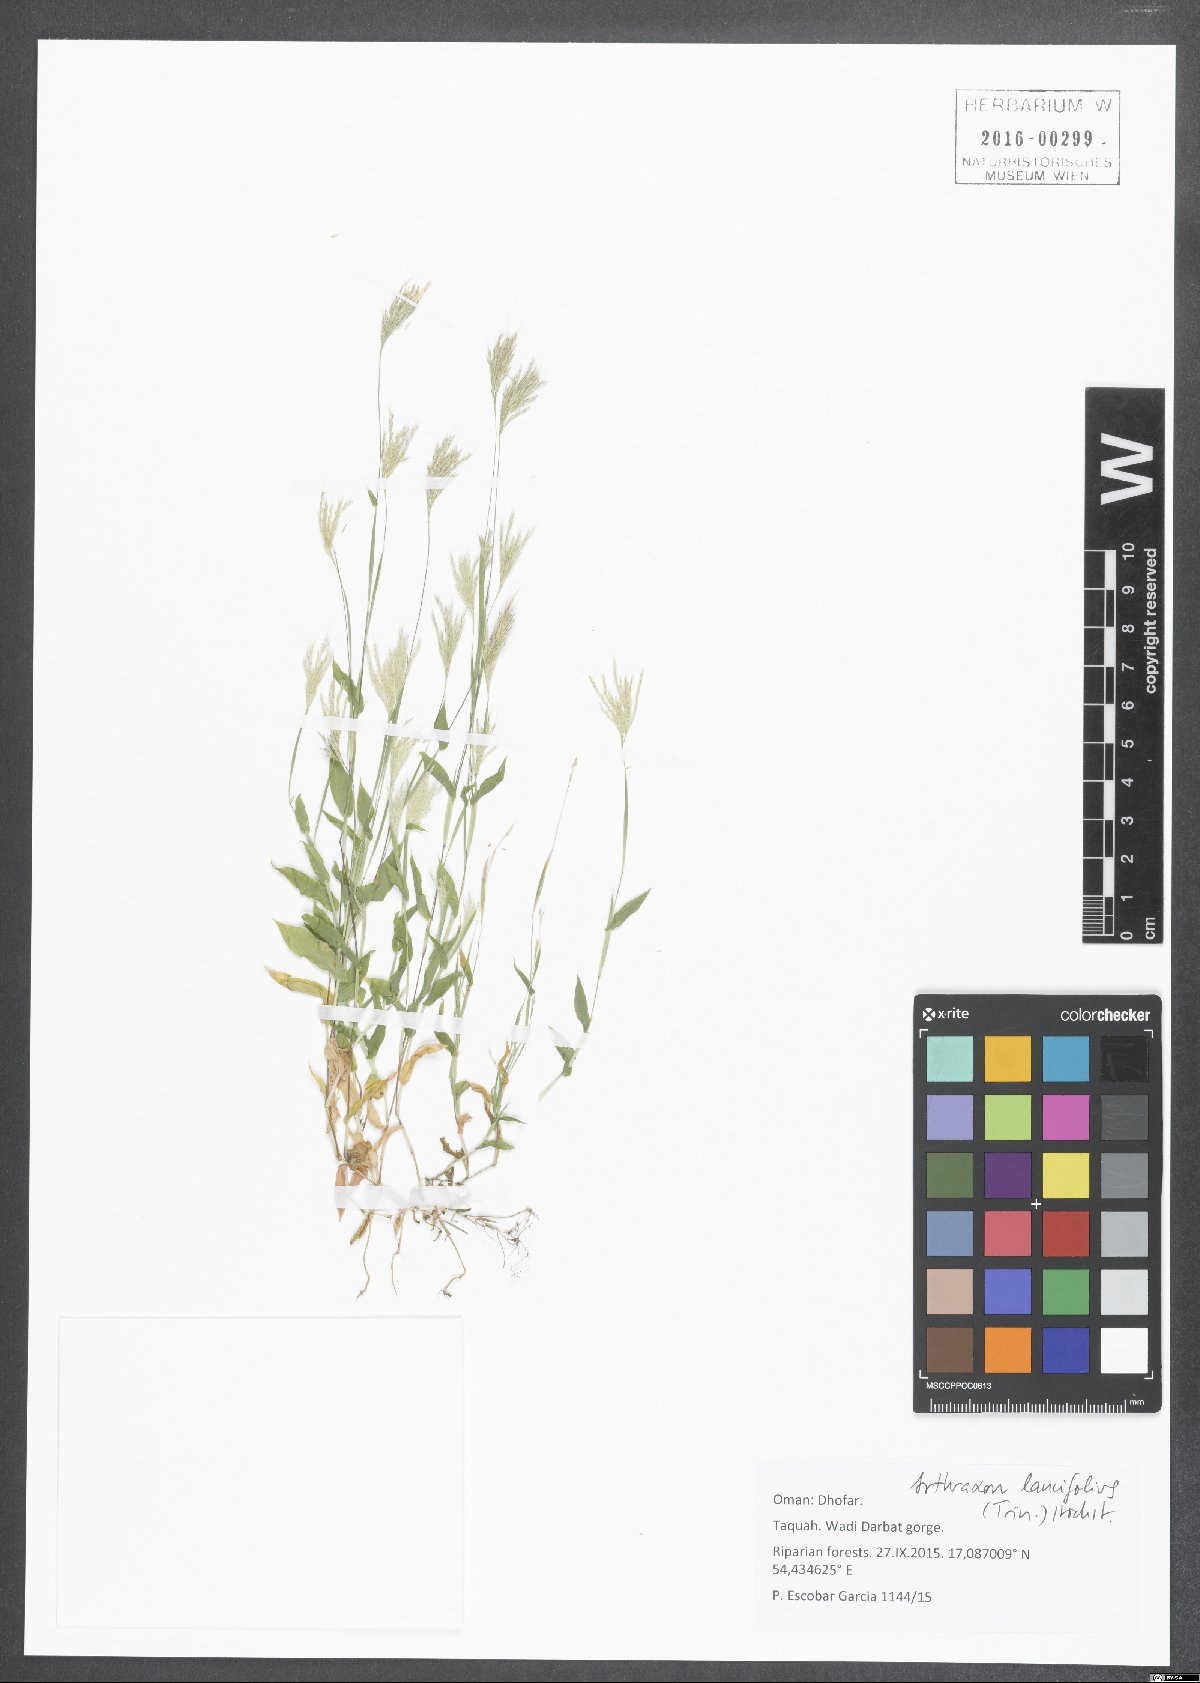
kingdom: Plantae
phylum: Tracheophyta
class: Liliopsida
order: Poales
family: Poaceae
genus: Arthraxon
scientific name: Arthraxon lancifolius
